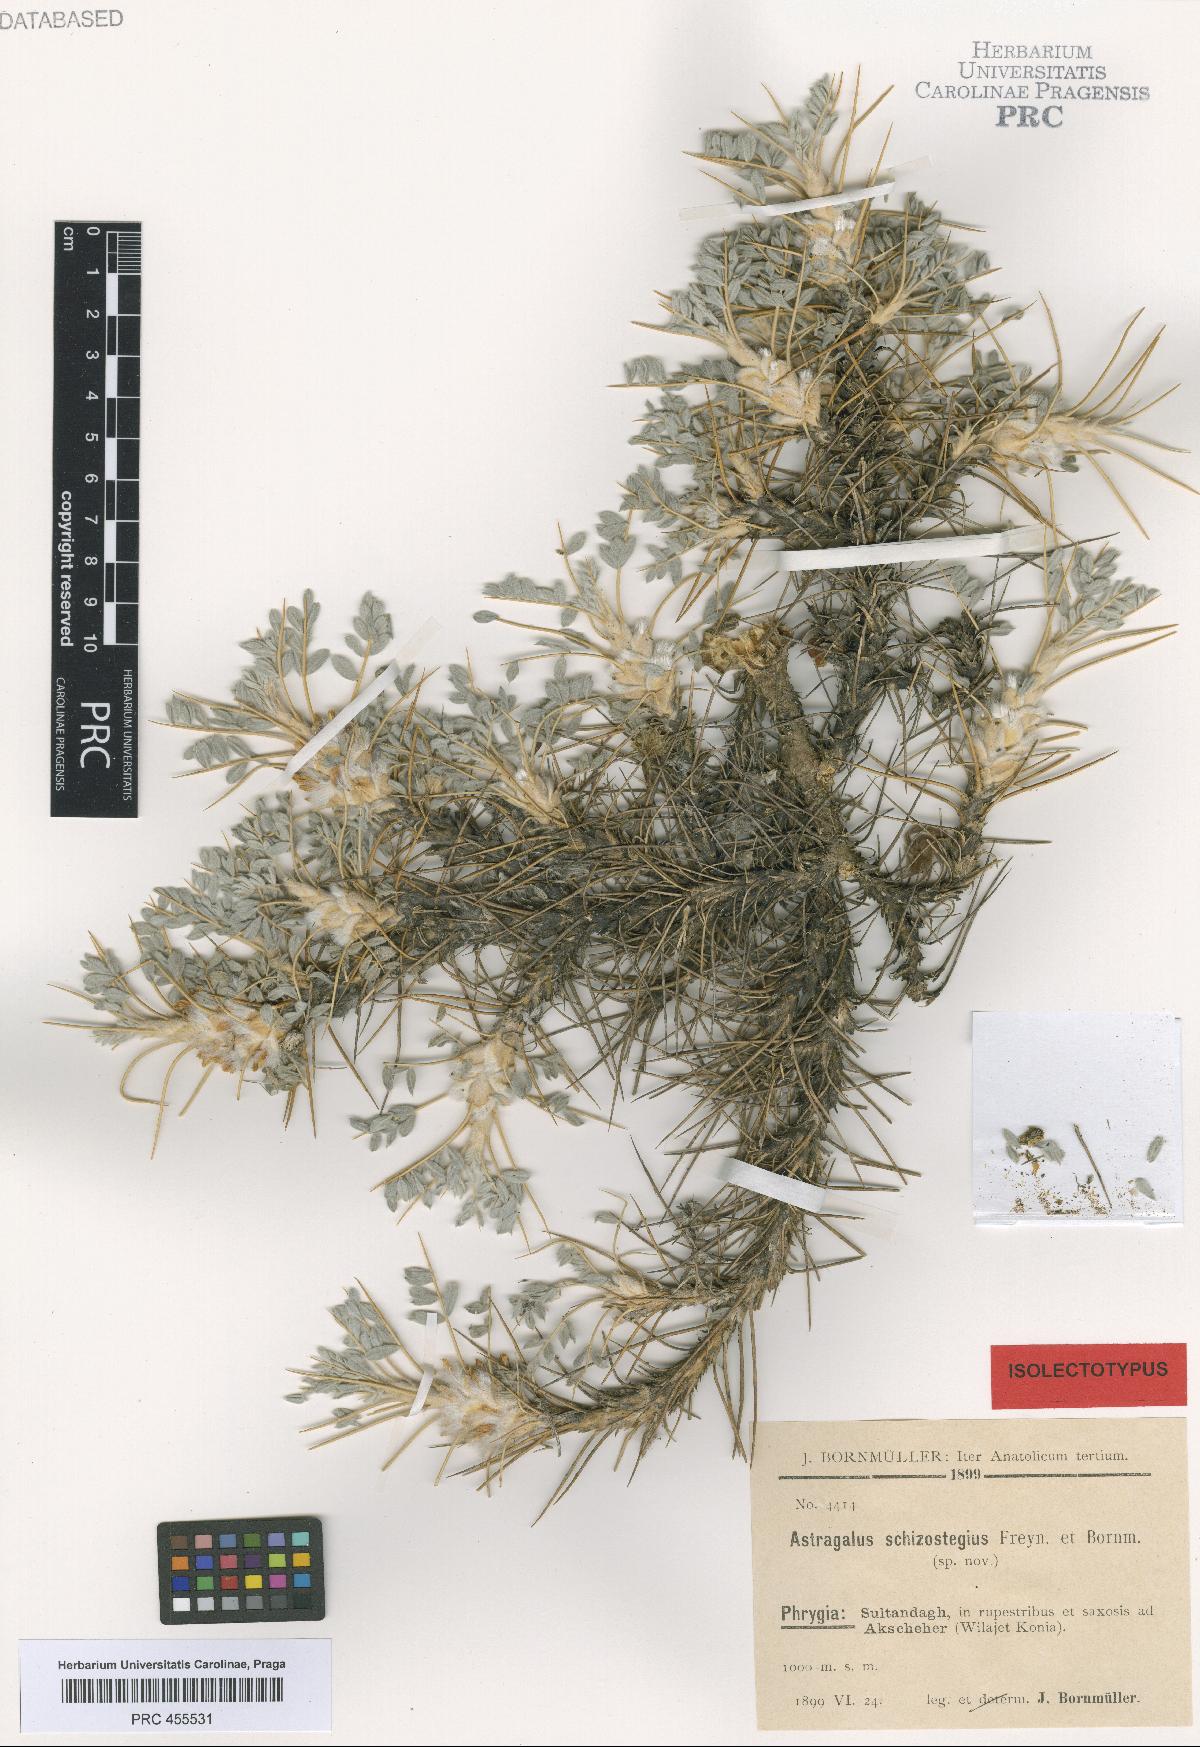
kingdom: Plantae
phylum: Tracheophyta
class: Magnoliopsida
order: Fabales
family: Fabaceae
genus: Astragalus
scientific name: Astragalus tmoleus
